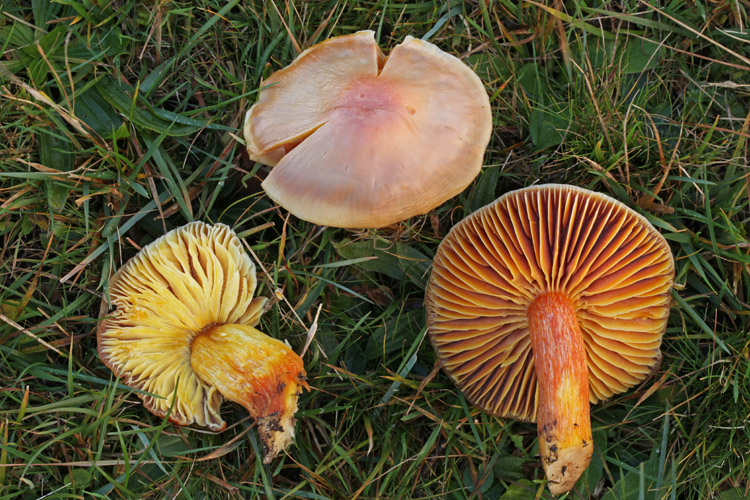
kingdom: Fungi
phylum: Basidiomycota
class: Agaricomycetes
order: Agaricales
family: Hygrophoraceae
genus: Hygrocybe
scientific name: Hygrocybe punicea
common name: skarlagen-vokshat
